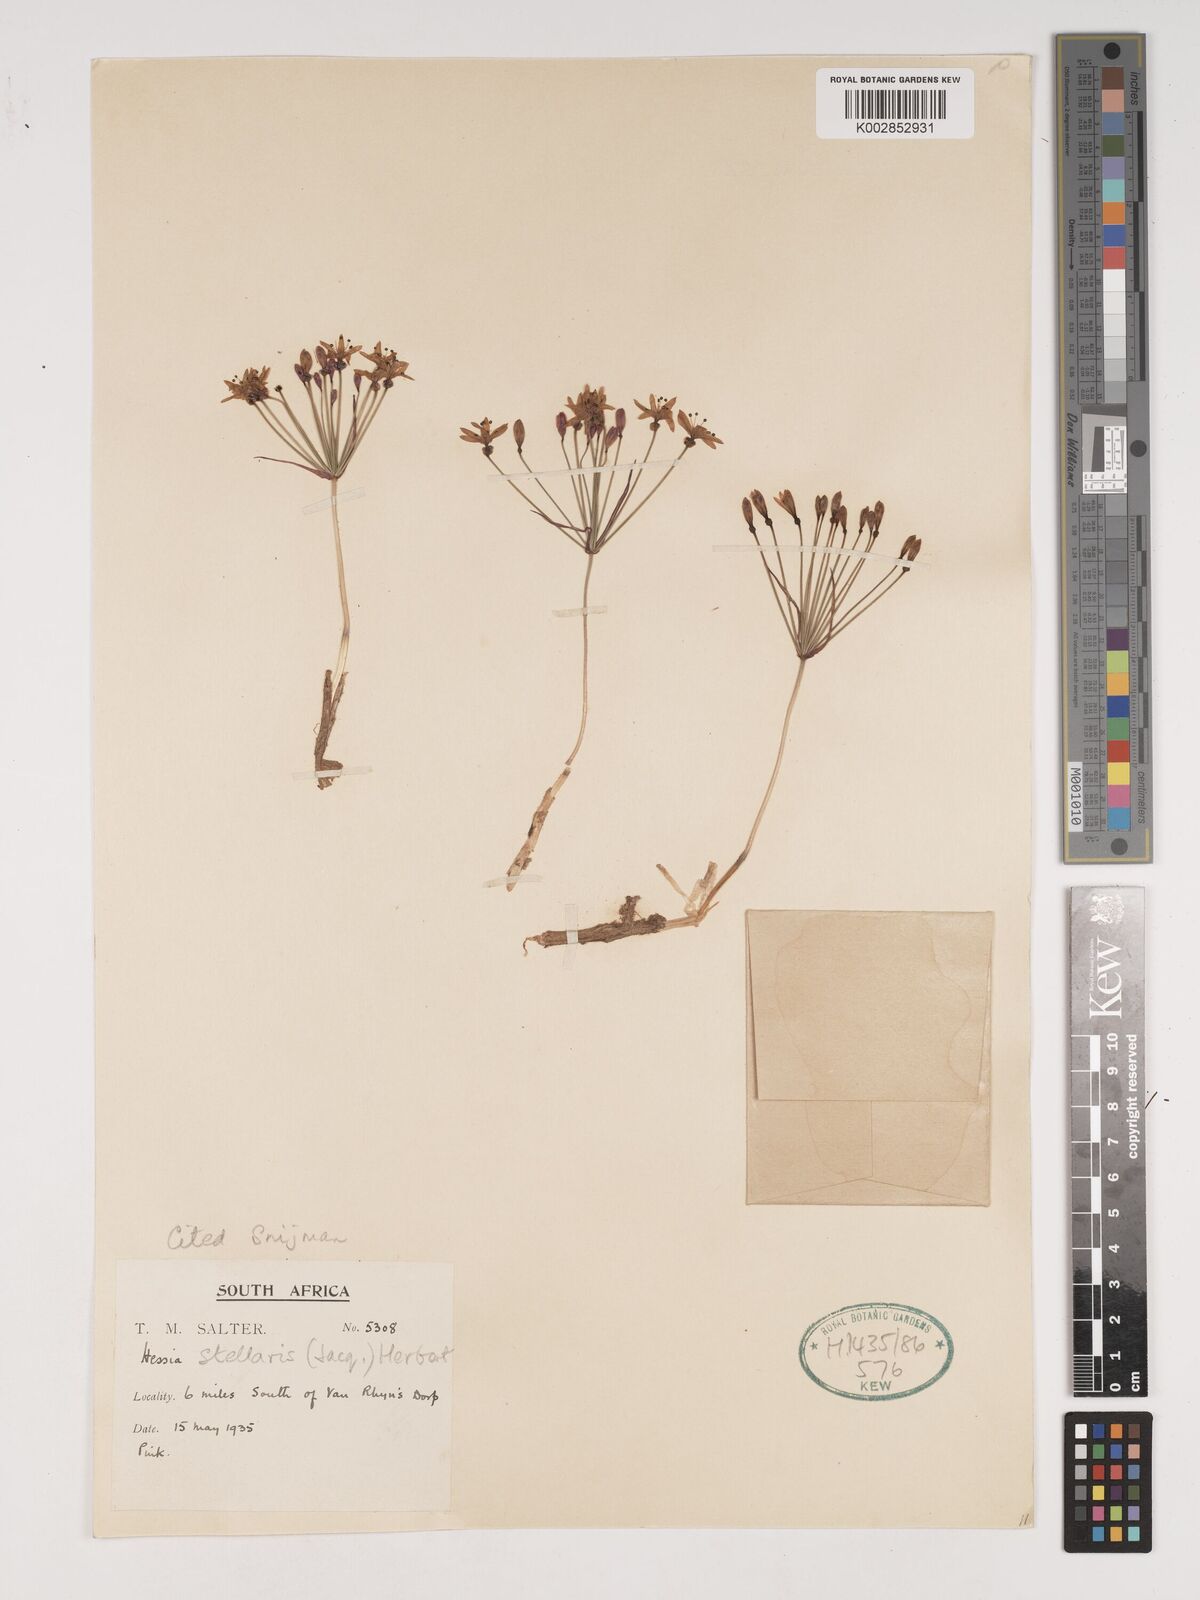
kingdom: Plantae
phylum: Tracheophyta
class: Liliopsida
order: Asparagales
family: Amaryllidaceae
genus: Hessea
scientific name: Hessea stellaris
